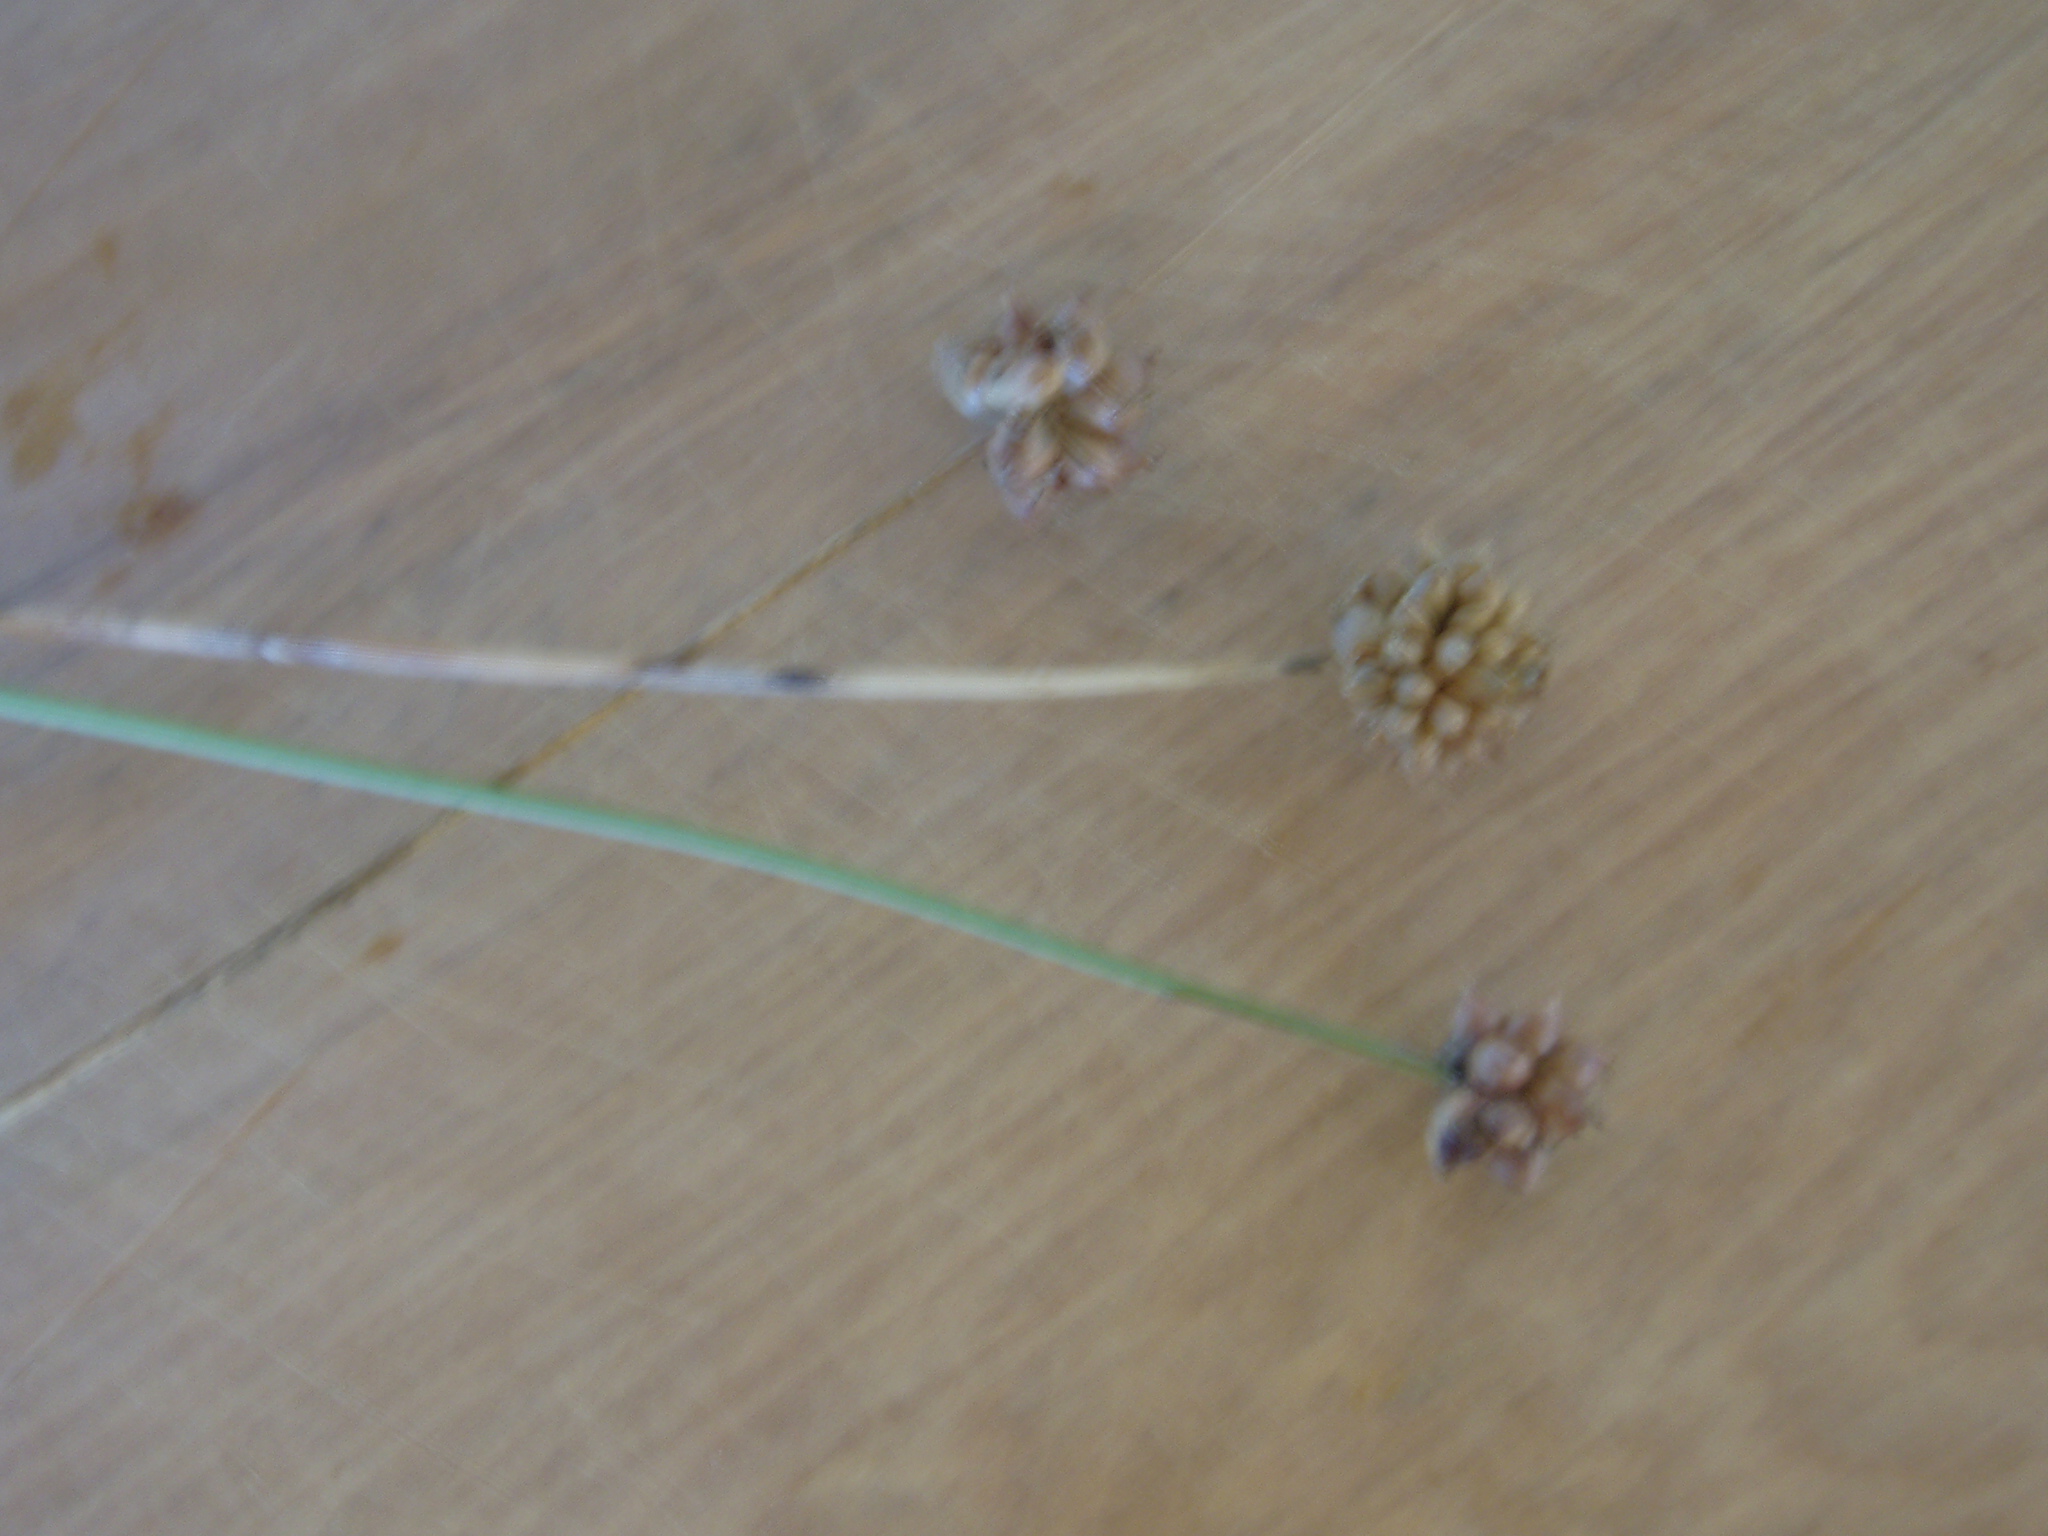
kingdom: Plantae
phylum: Tracheophyta
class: Liliopsida
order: Asparagales
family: Amaryllidaceae
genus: Allium
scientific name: Allium vineale
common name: Crow garlic
